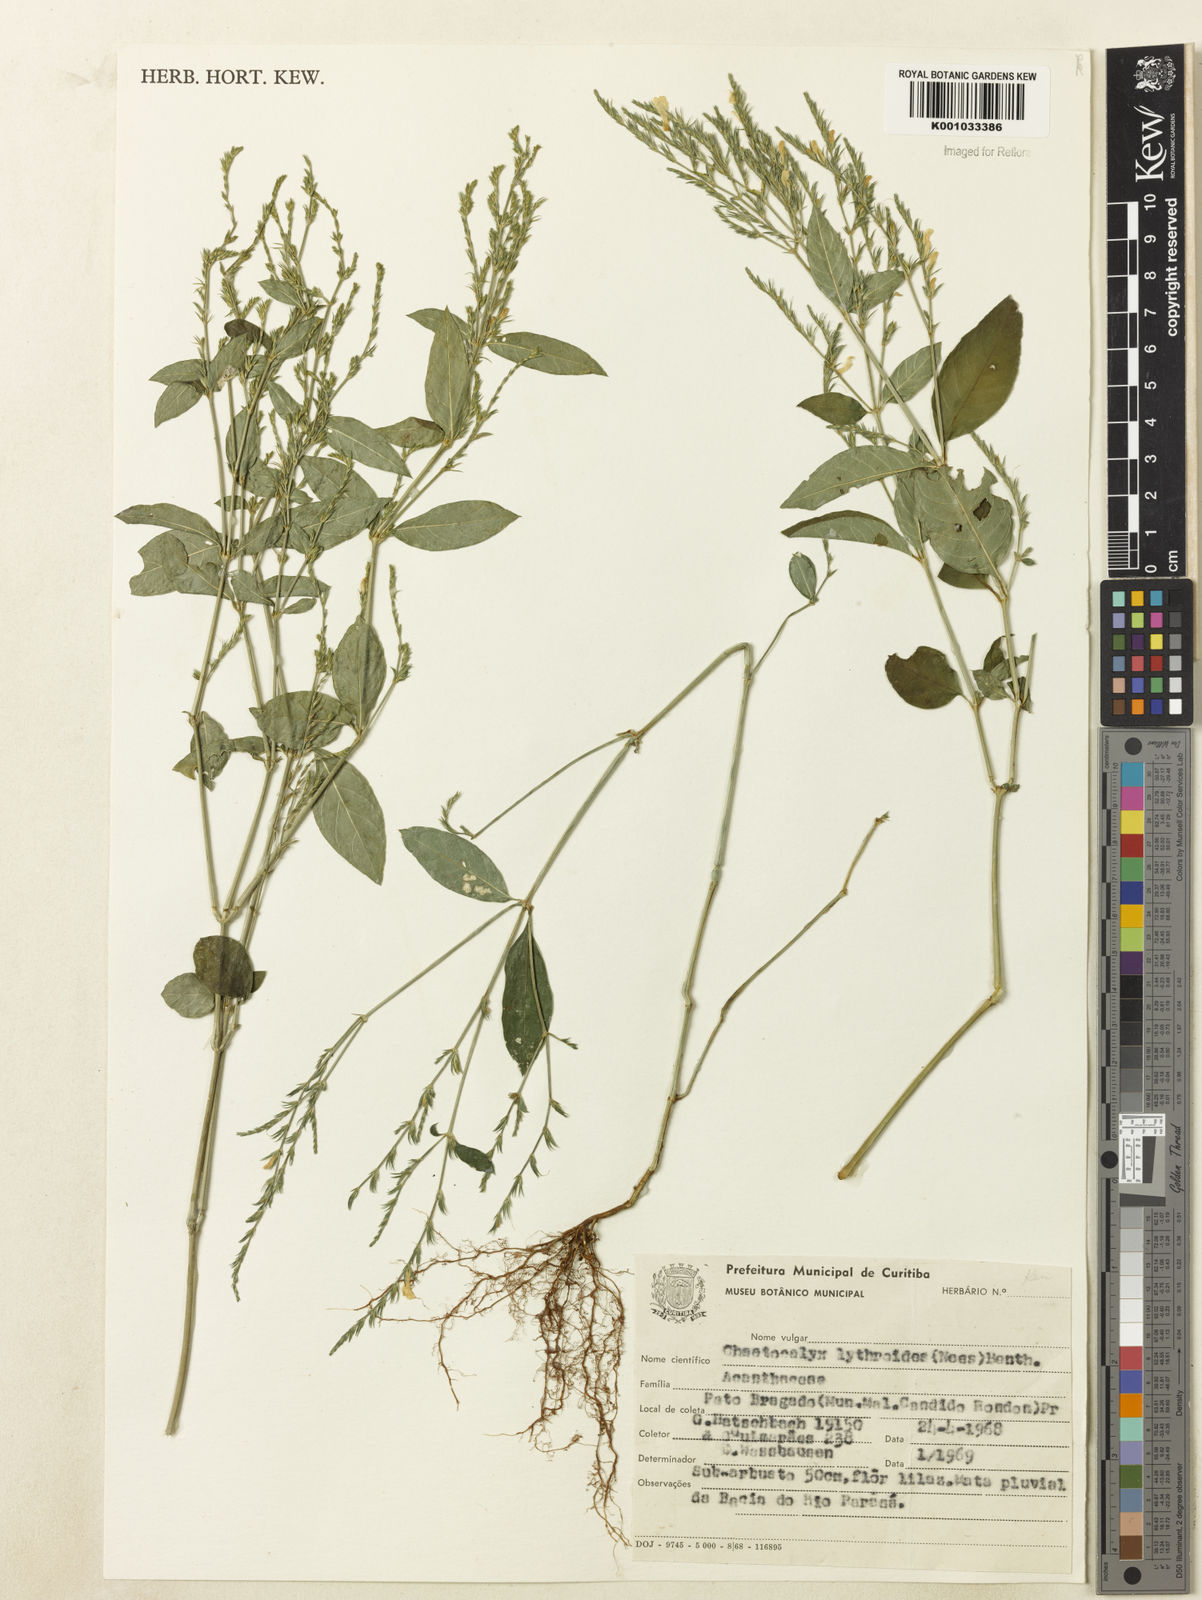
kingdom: Plantae
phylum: Tracheophyta
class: Magnoliopsida
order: Lamiales
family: Acanthaceae
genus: Justicia
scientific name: Justicia lythroides
